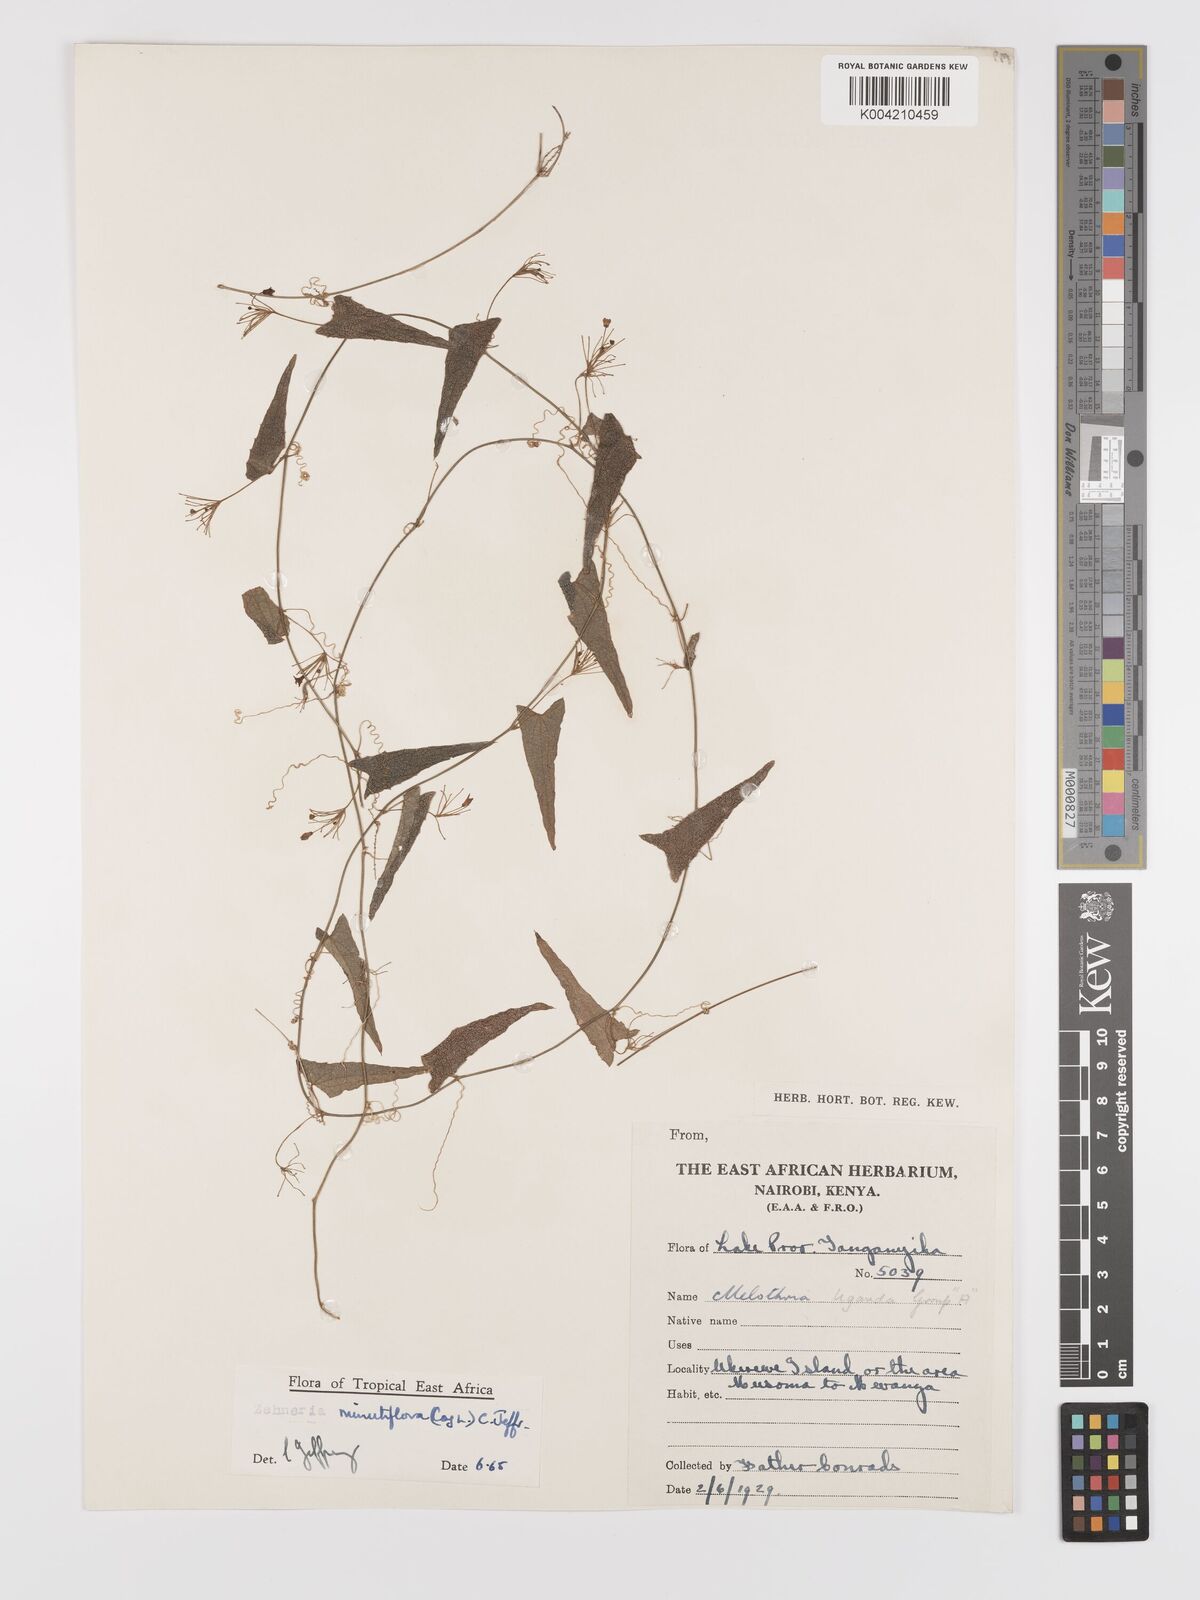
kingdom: Plantae
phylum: Tracheophyta
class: Magnoliopsida
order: Cucurbitales
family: Cucurbitaceae
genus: Zehneria
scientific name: Zehneria minutiflora
